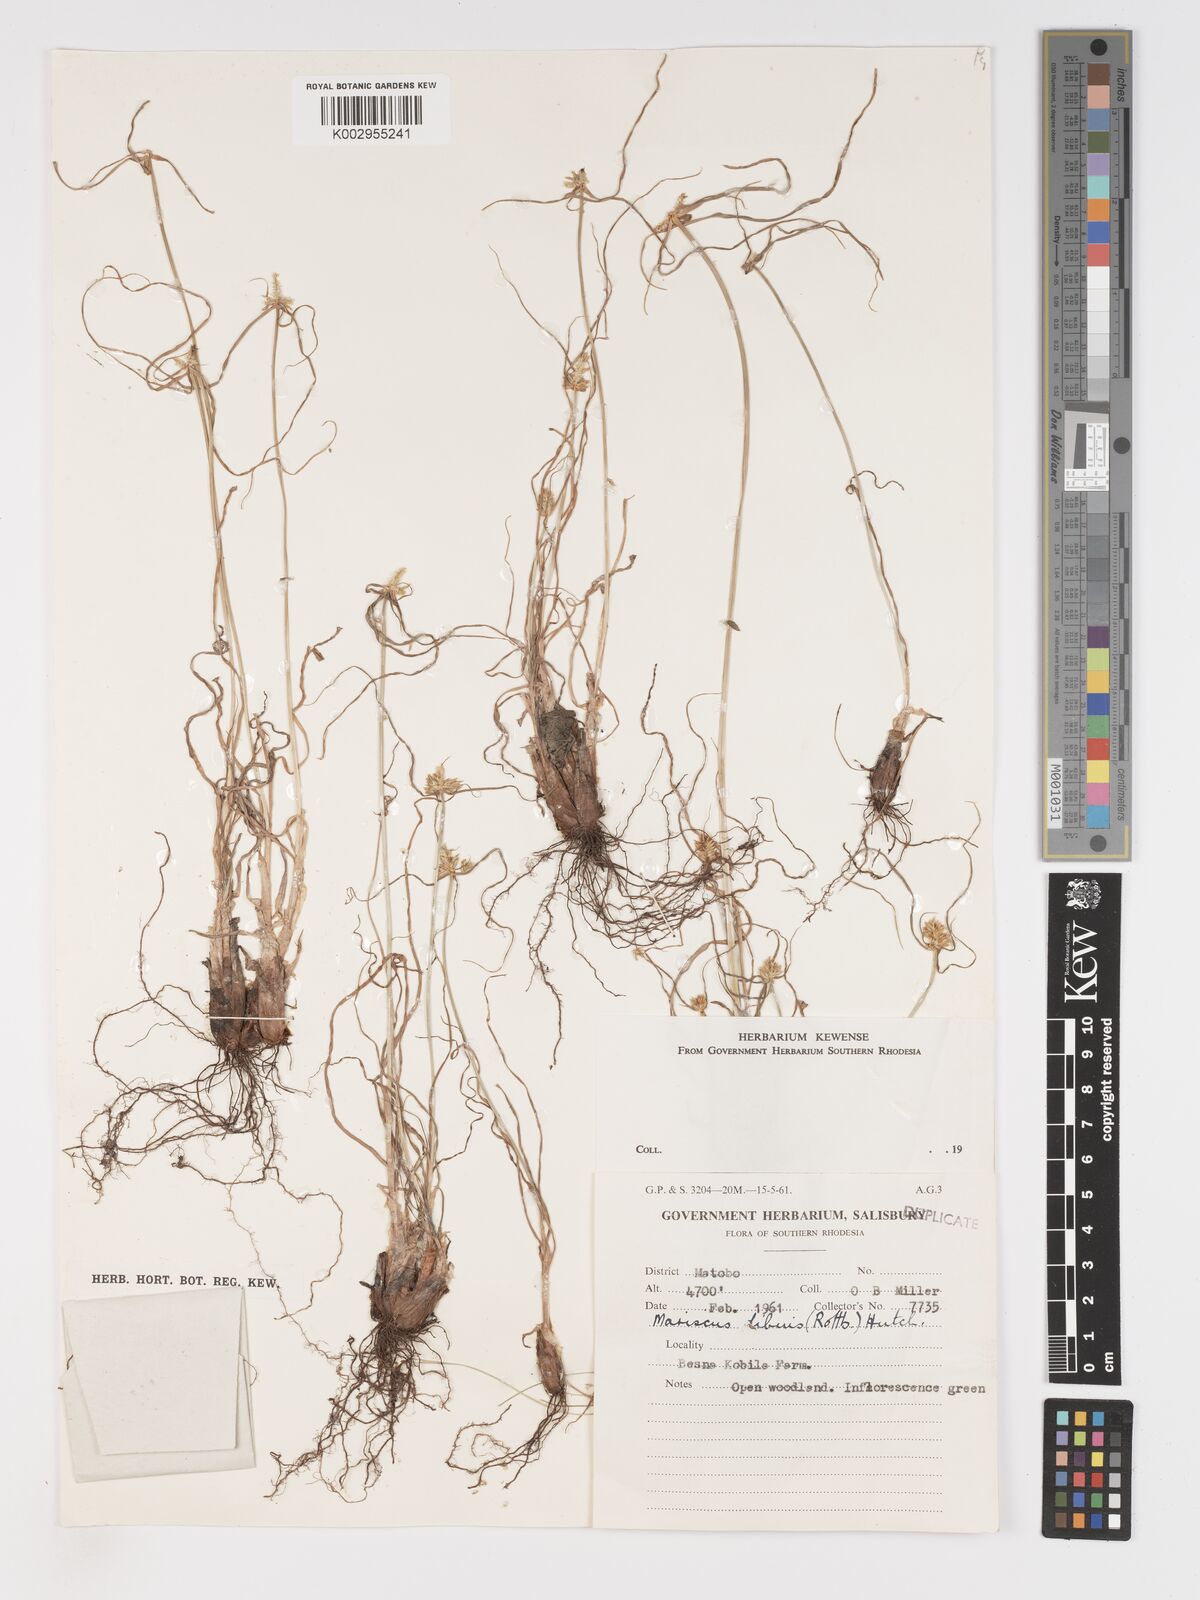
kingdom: Plantae
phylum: Tracheophyta
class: Liliopsida
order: Poales
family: Cyperaceae
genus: Cyperus
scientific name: Cyperus chersinus
